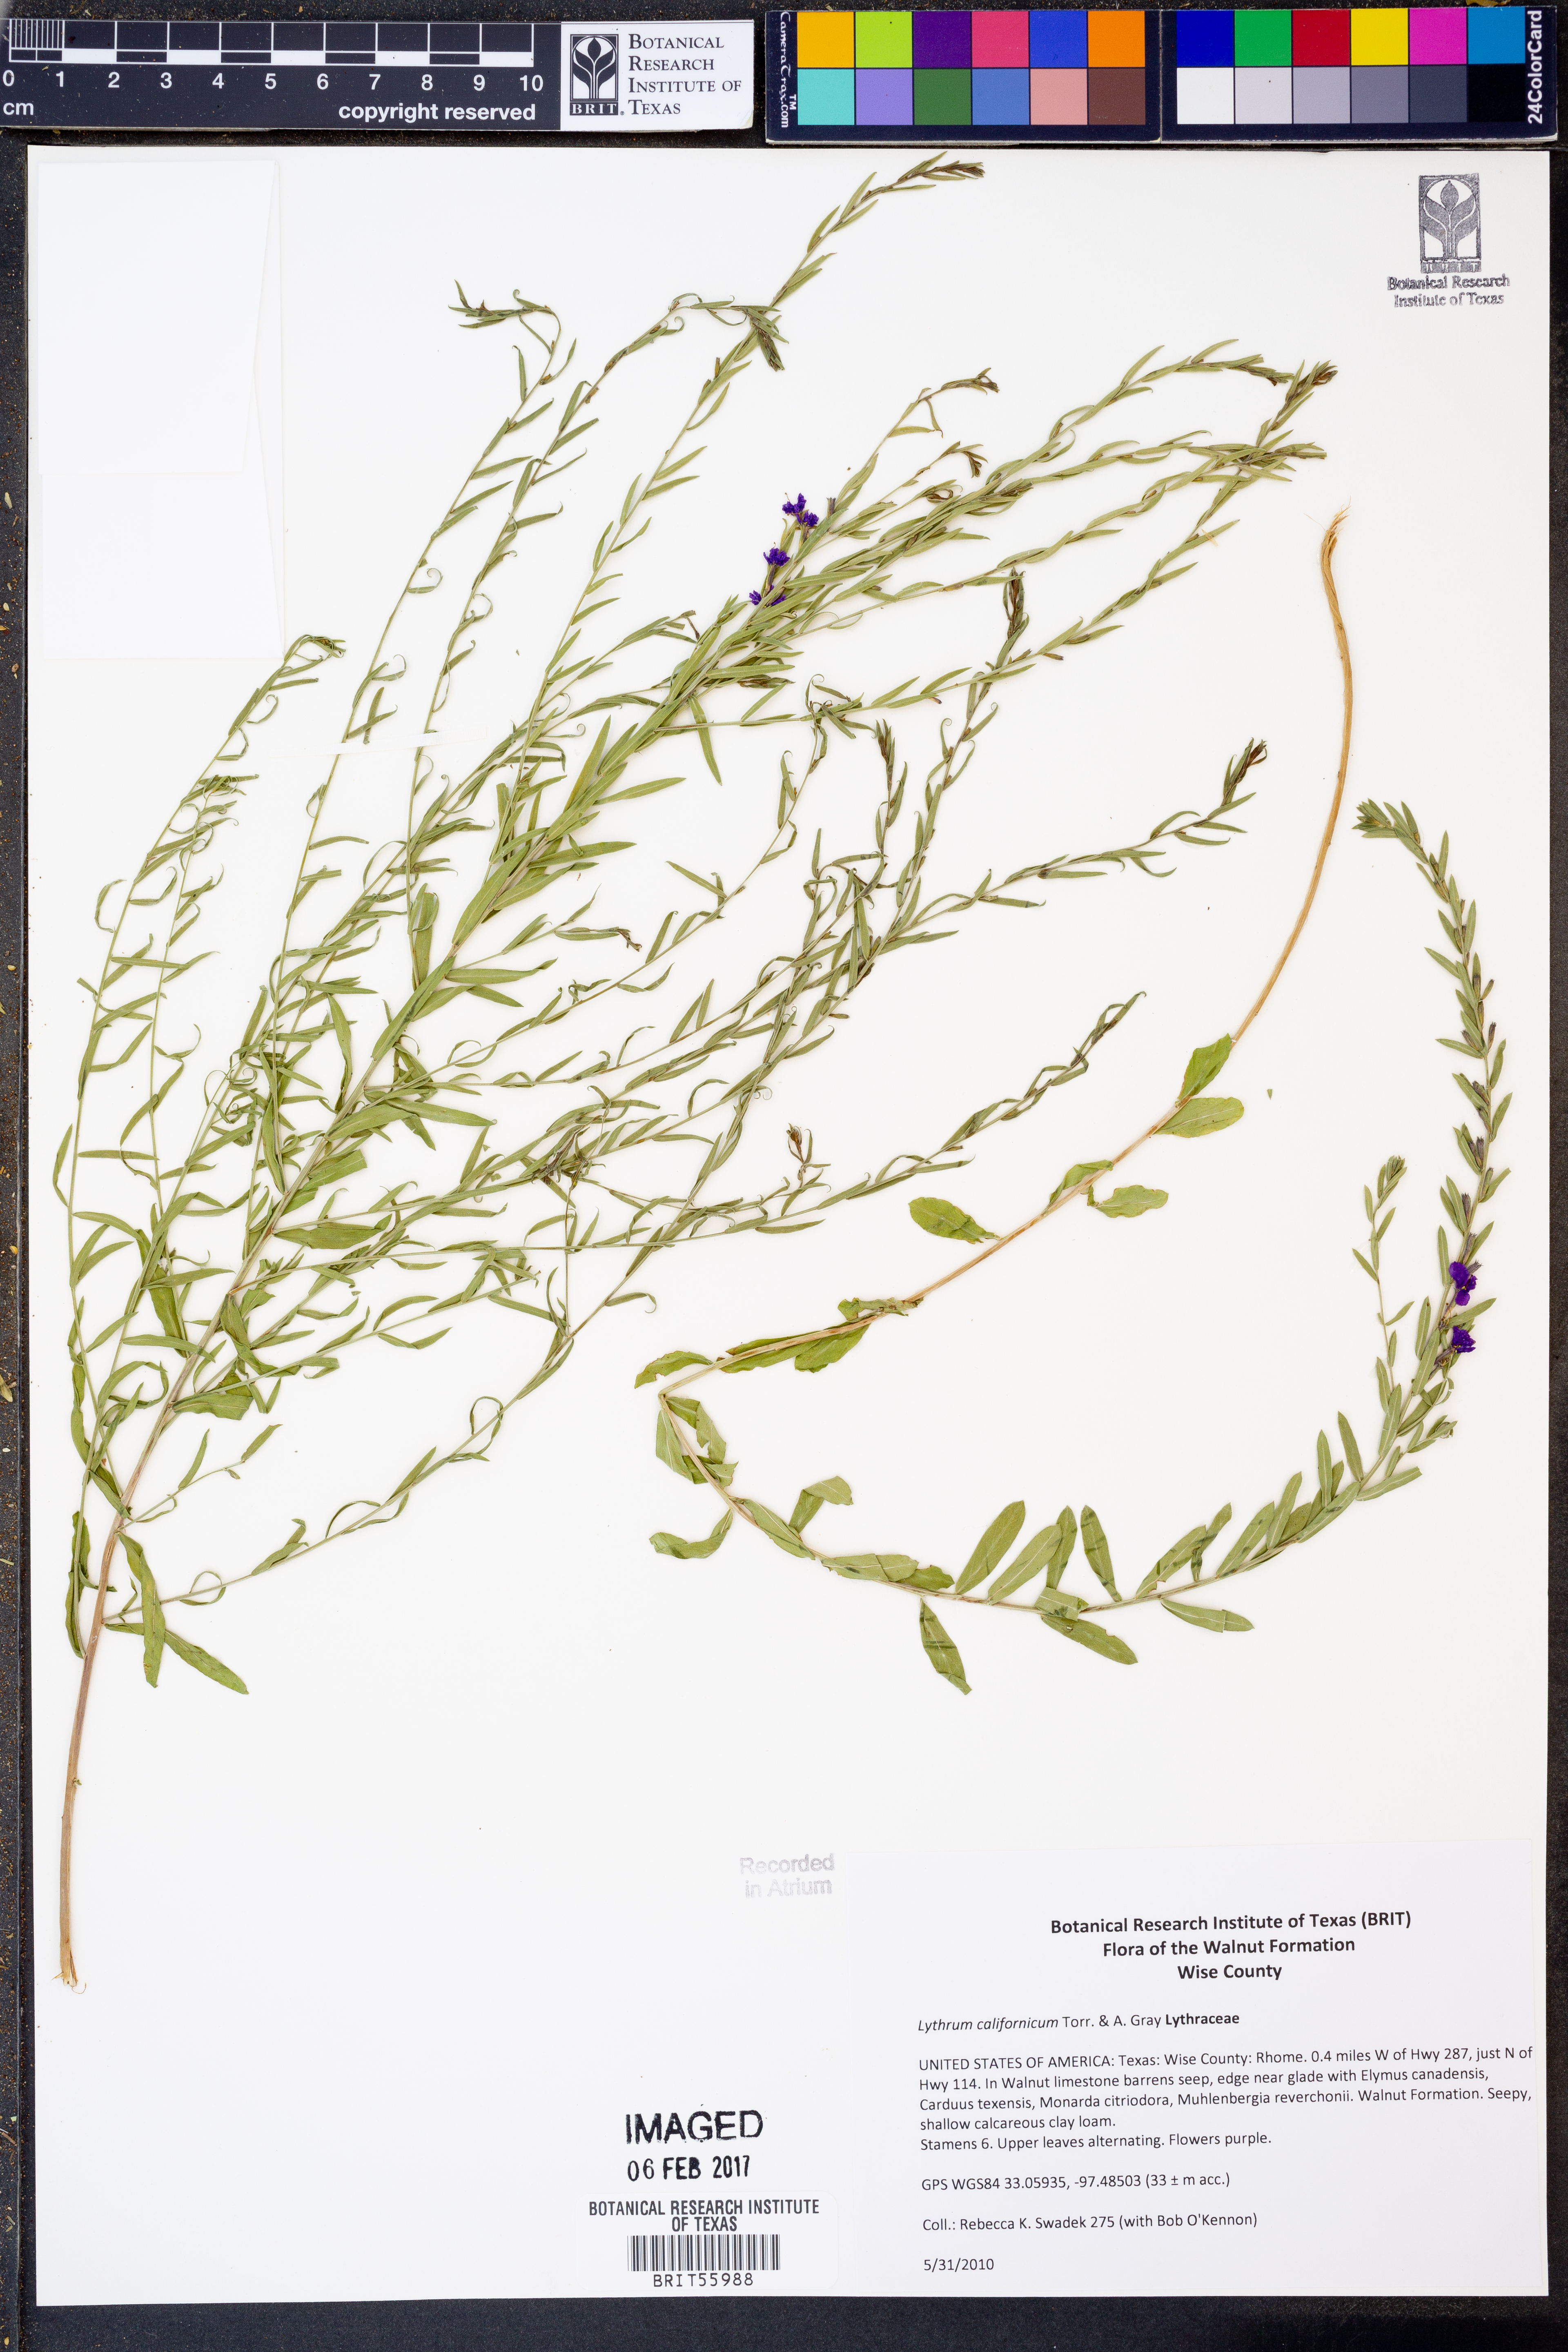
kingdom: Plantae
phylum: Tracheophyta
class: Magnoliopsida
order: Myrtales
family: Lythraceae
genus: Lythrum
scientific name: Lythrum californicum
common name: California loosestrife
